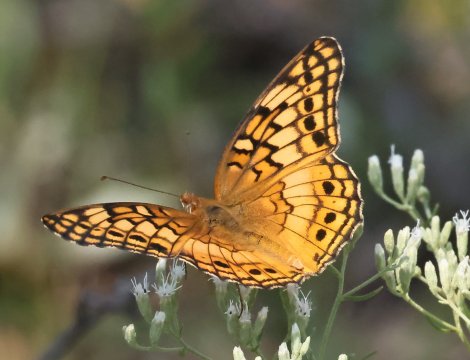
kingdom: Animalia
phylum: Arthropoda
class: Insecta
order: Lepidoptera
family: Nymphalidae
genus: Euptoieta
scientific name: Euptoieta claudia
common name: Variegated Fritillary
